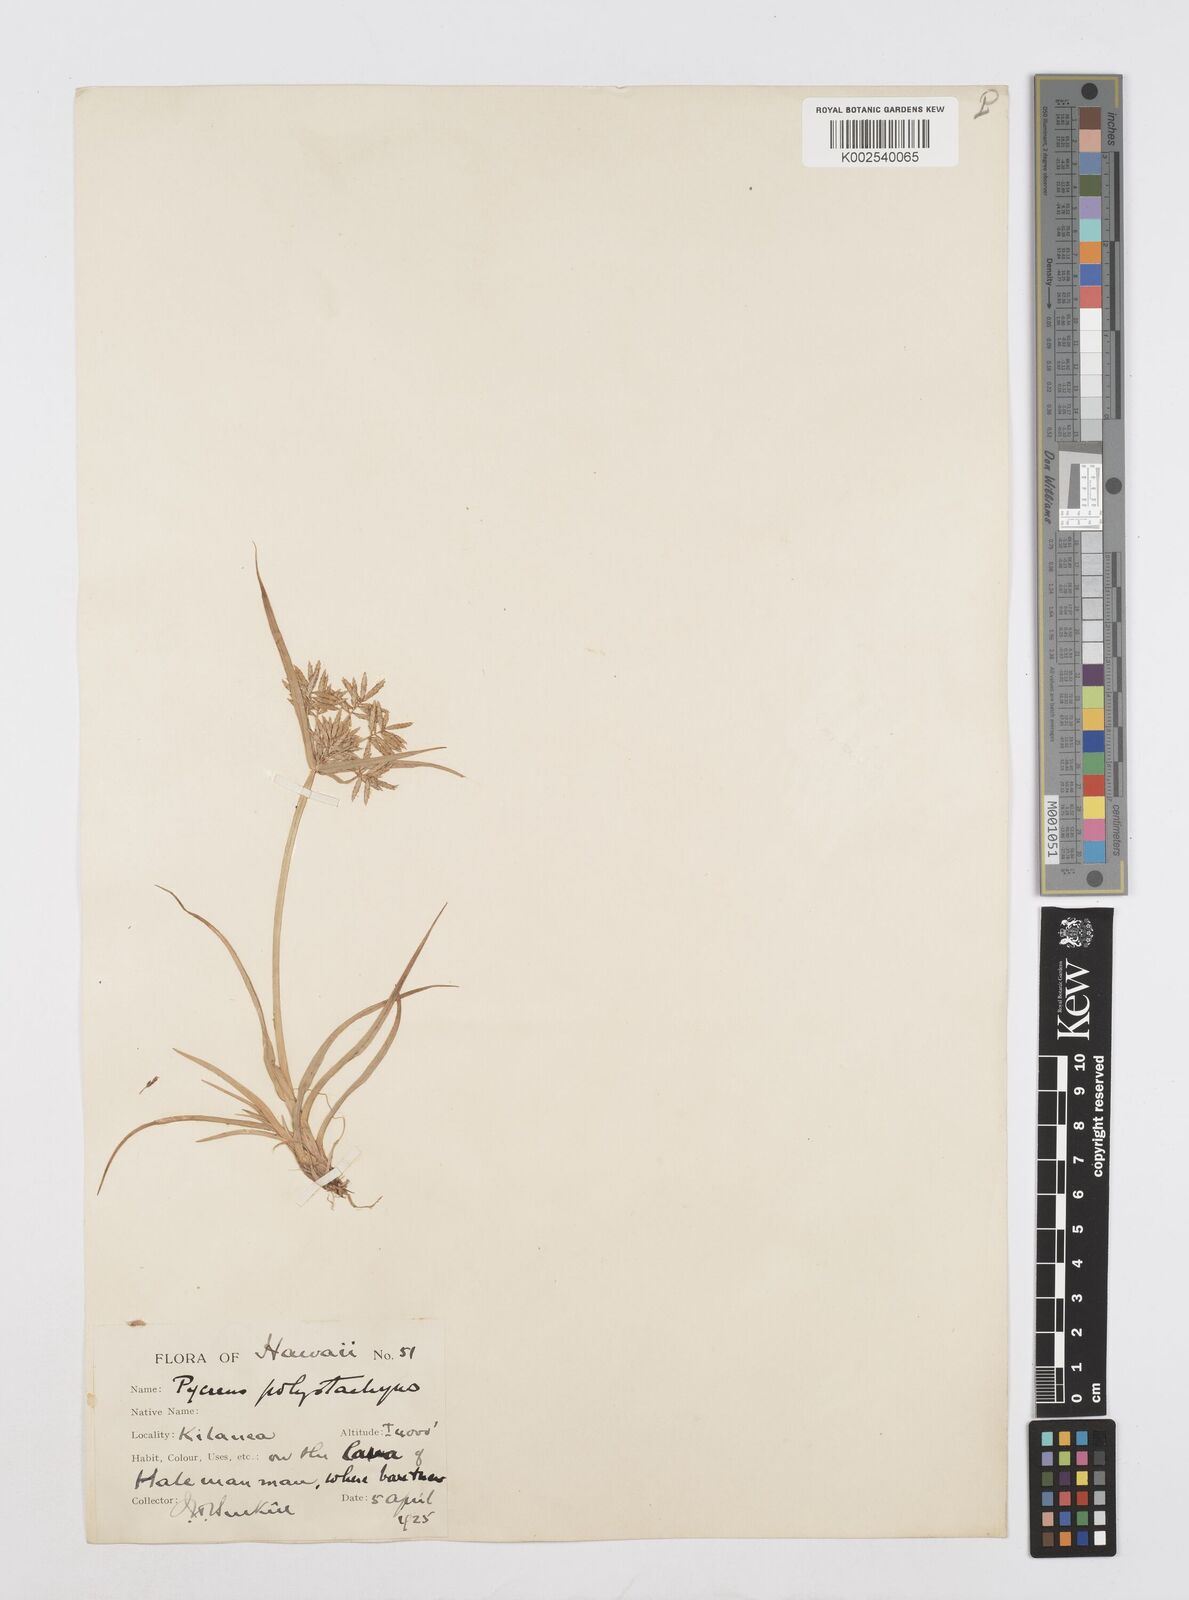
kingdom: Plantae
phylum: Tracheophyta
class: Liliopsida
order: Poales
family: Cyperaceae
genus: Cyperus
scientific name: Cyperus polystachyos
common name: Bunchy flat sedge
